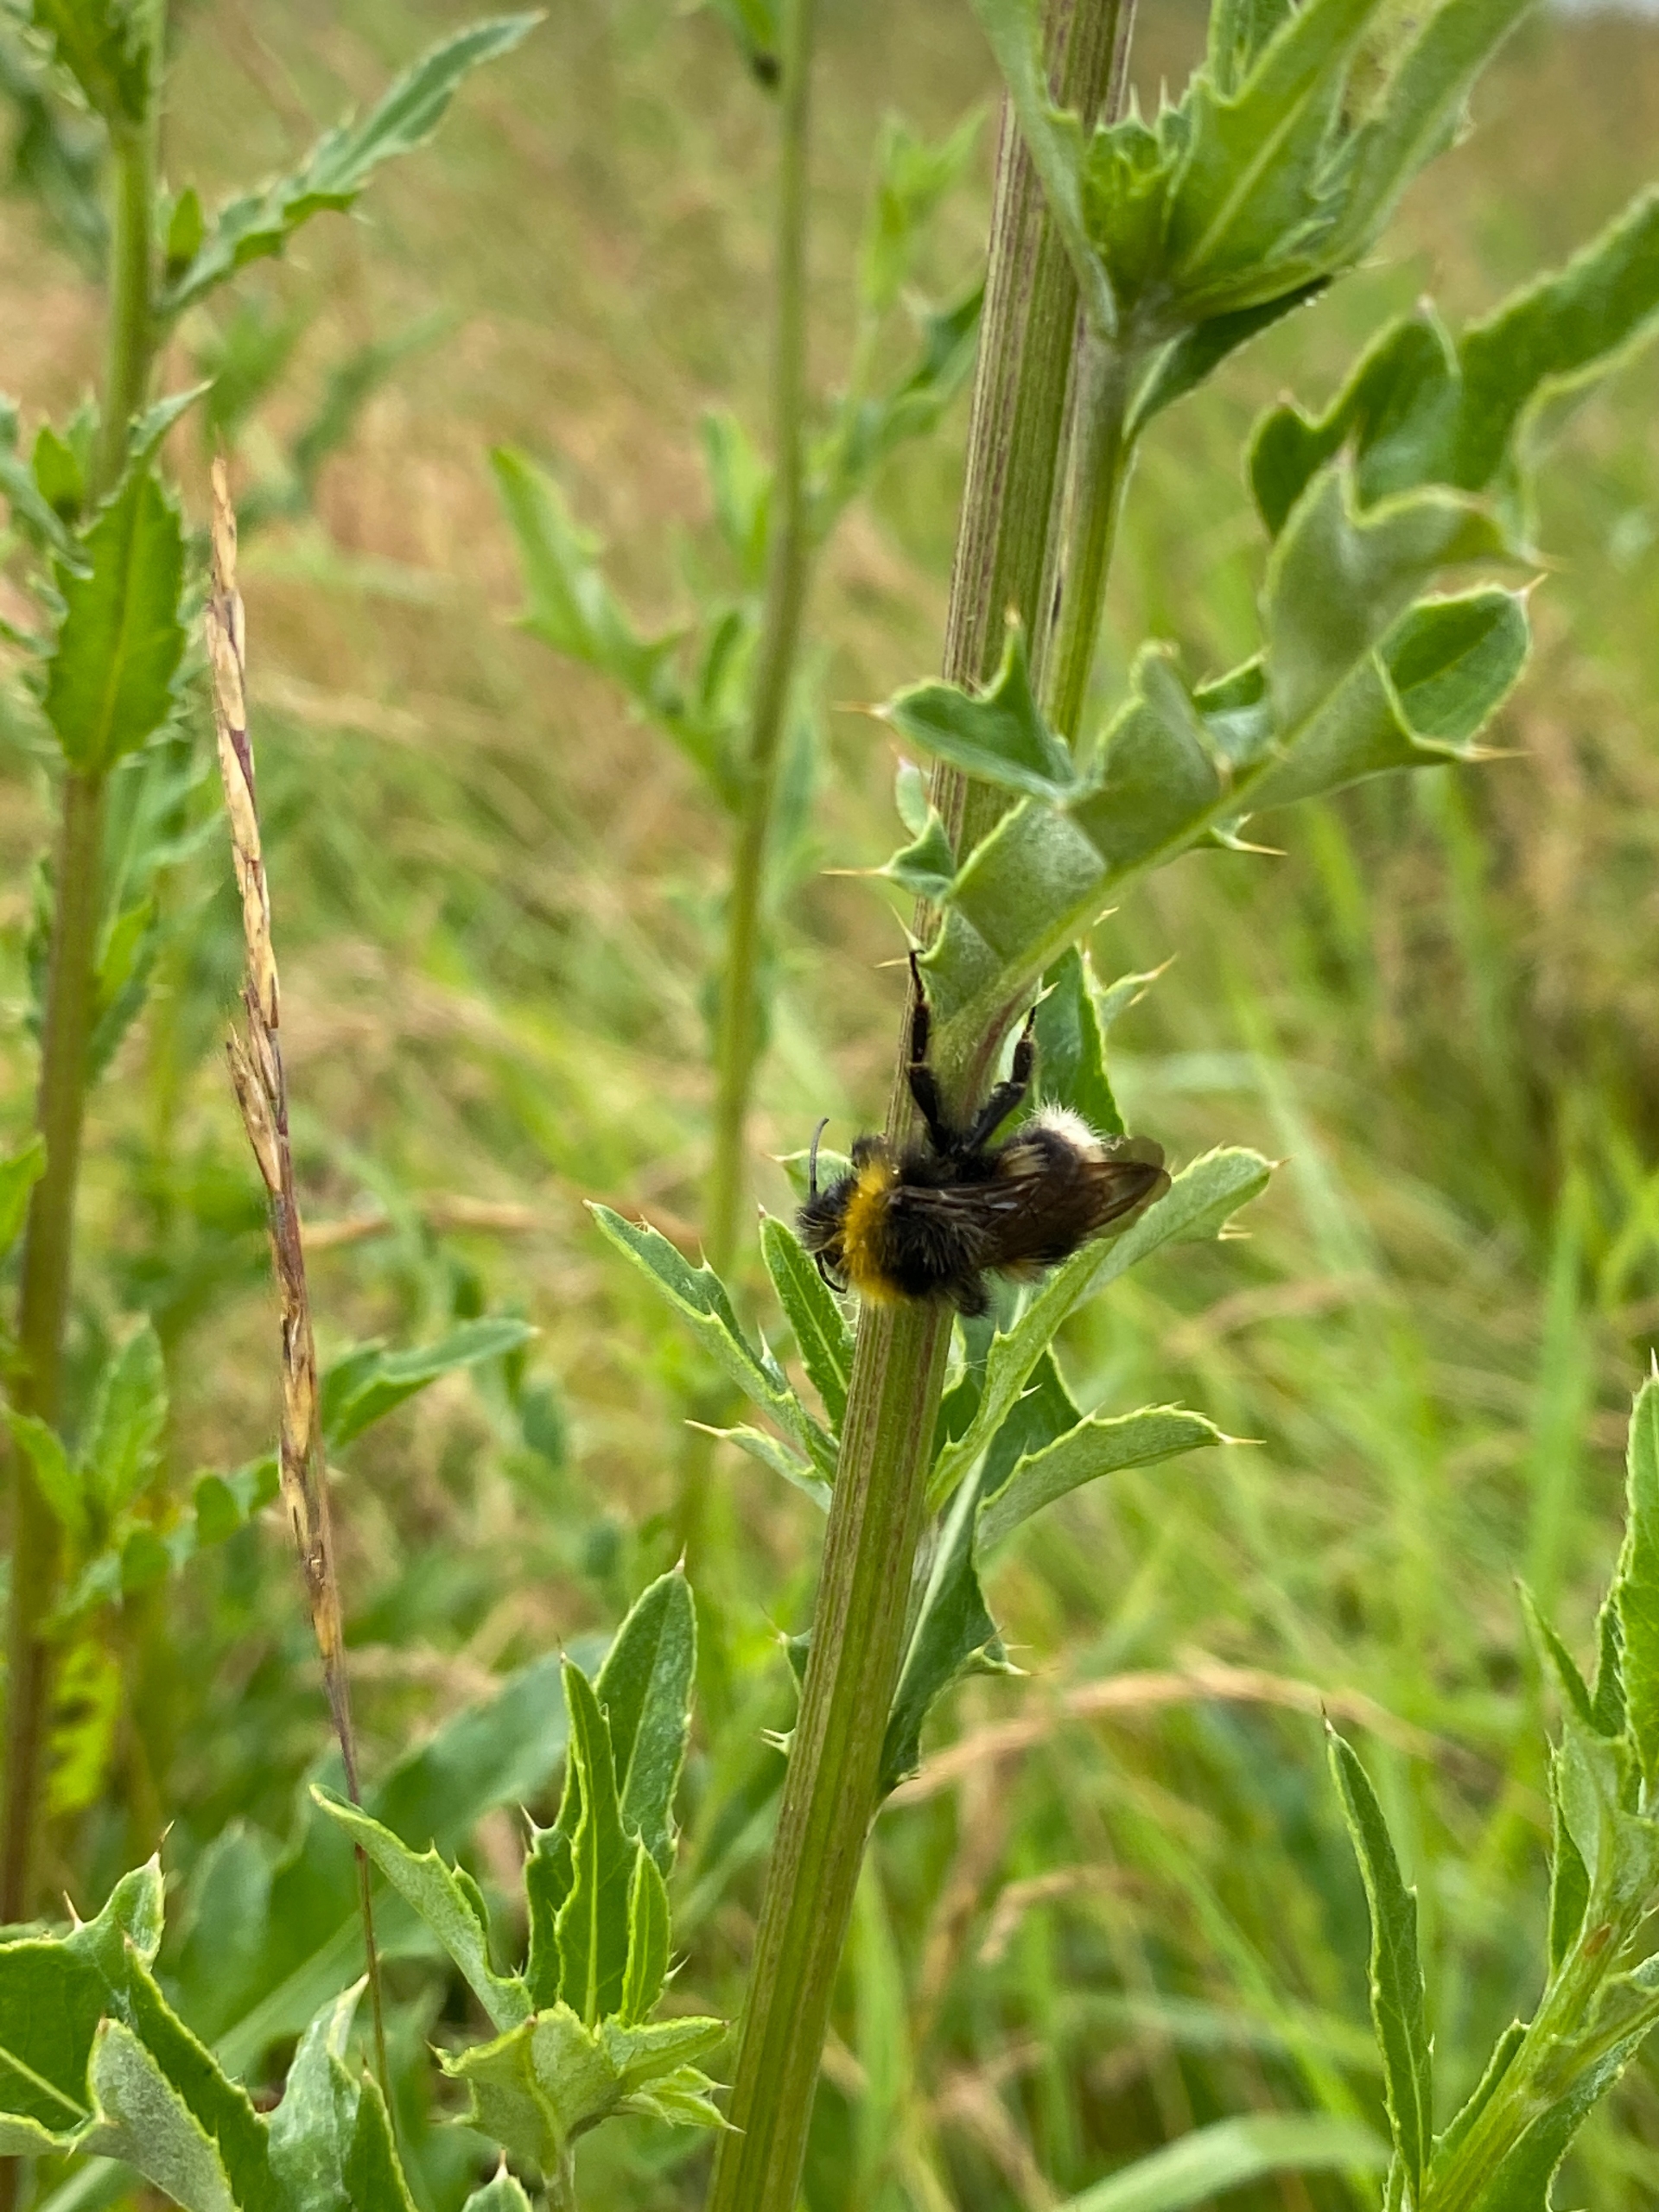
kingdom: Animalia
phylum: Arthropoda
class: Insecta
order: Hymenoptera
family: Apidae
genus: Bombus
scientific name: Bombus
